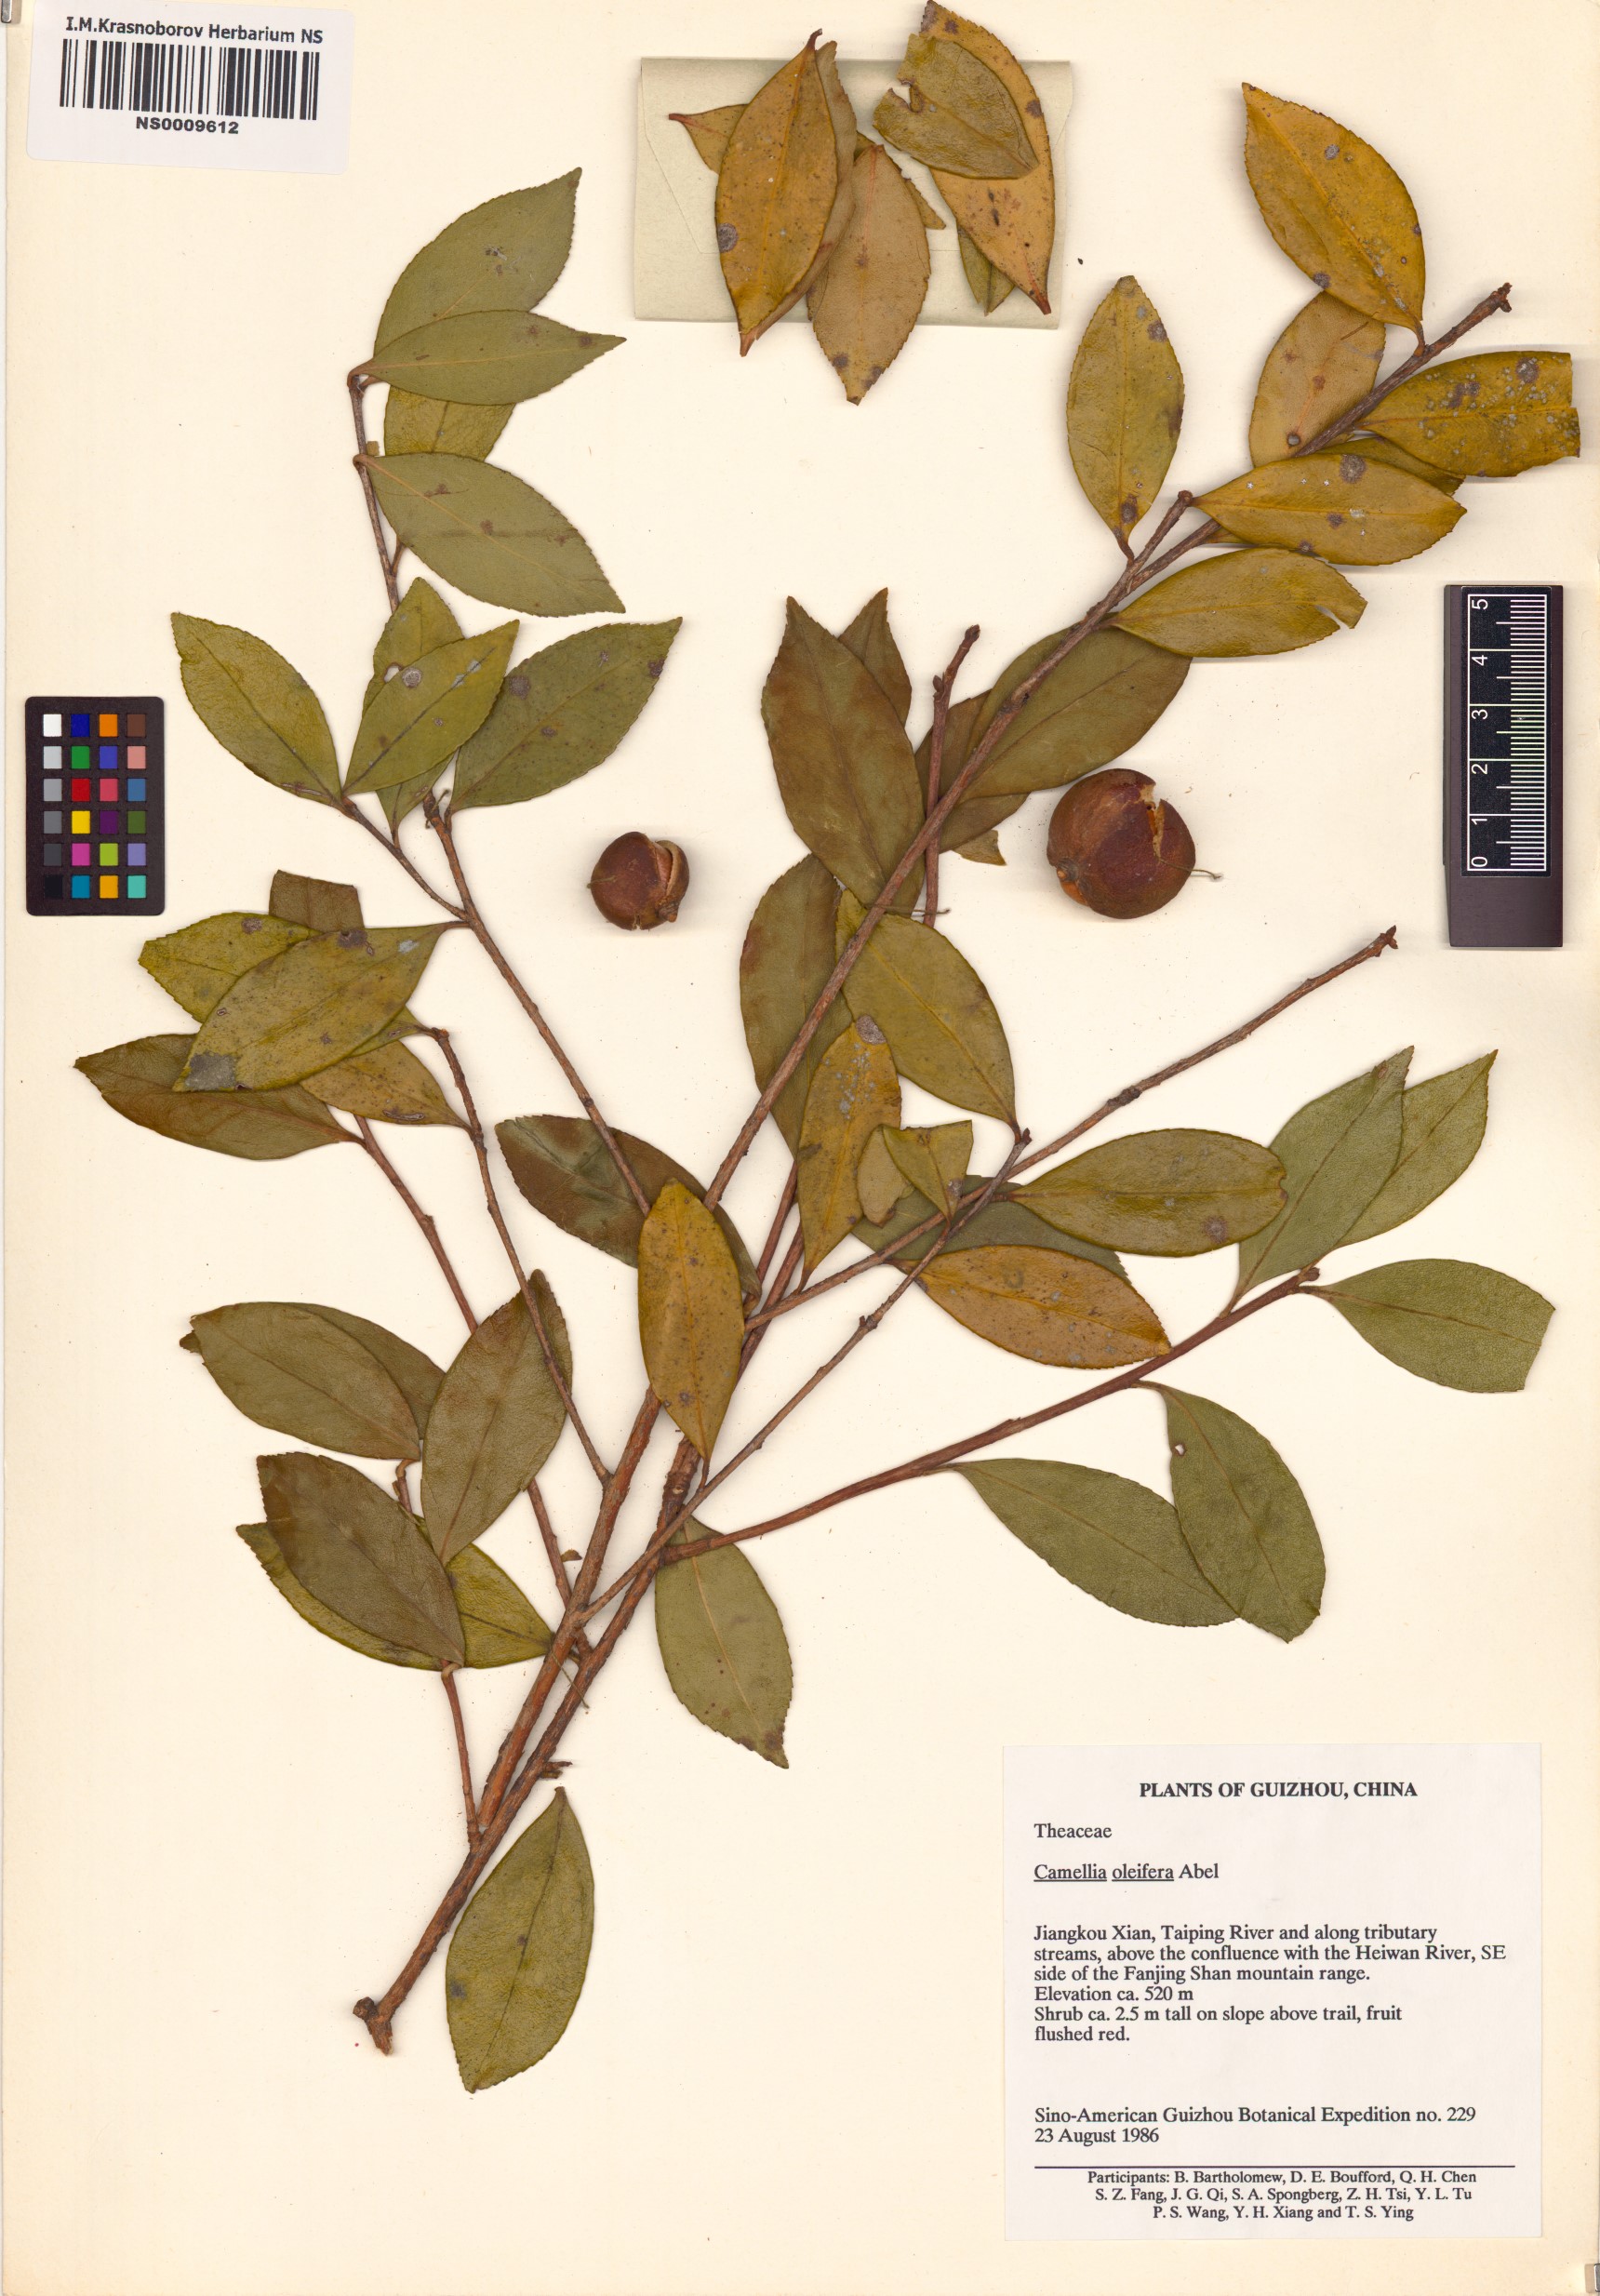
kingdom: Plantae
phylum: Tracheophyta
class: Magnoliopsida
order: Ericales
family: Theaceae
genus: Camellia
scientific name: Camellia oleifera
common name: Tea-oil-plant
